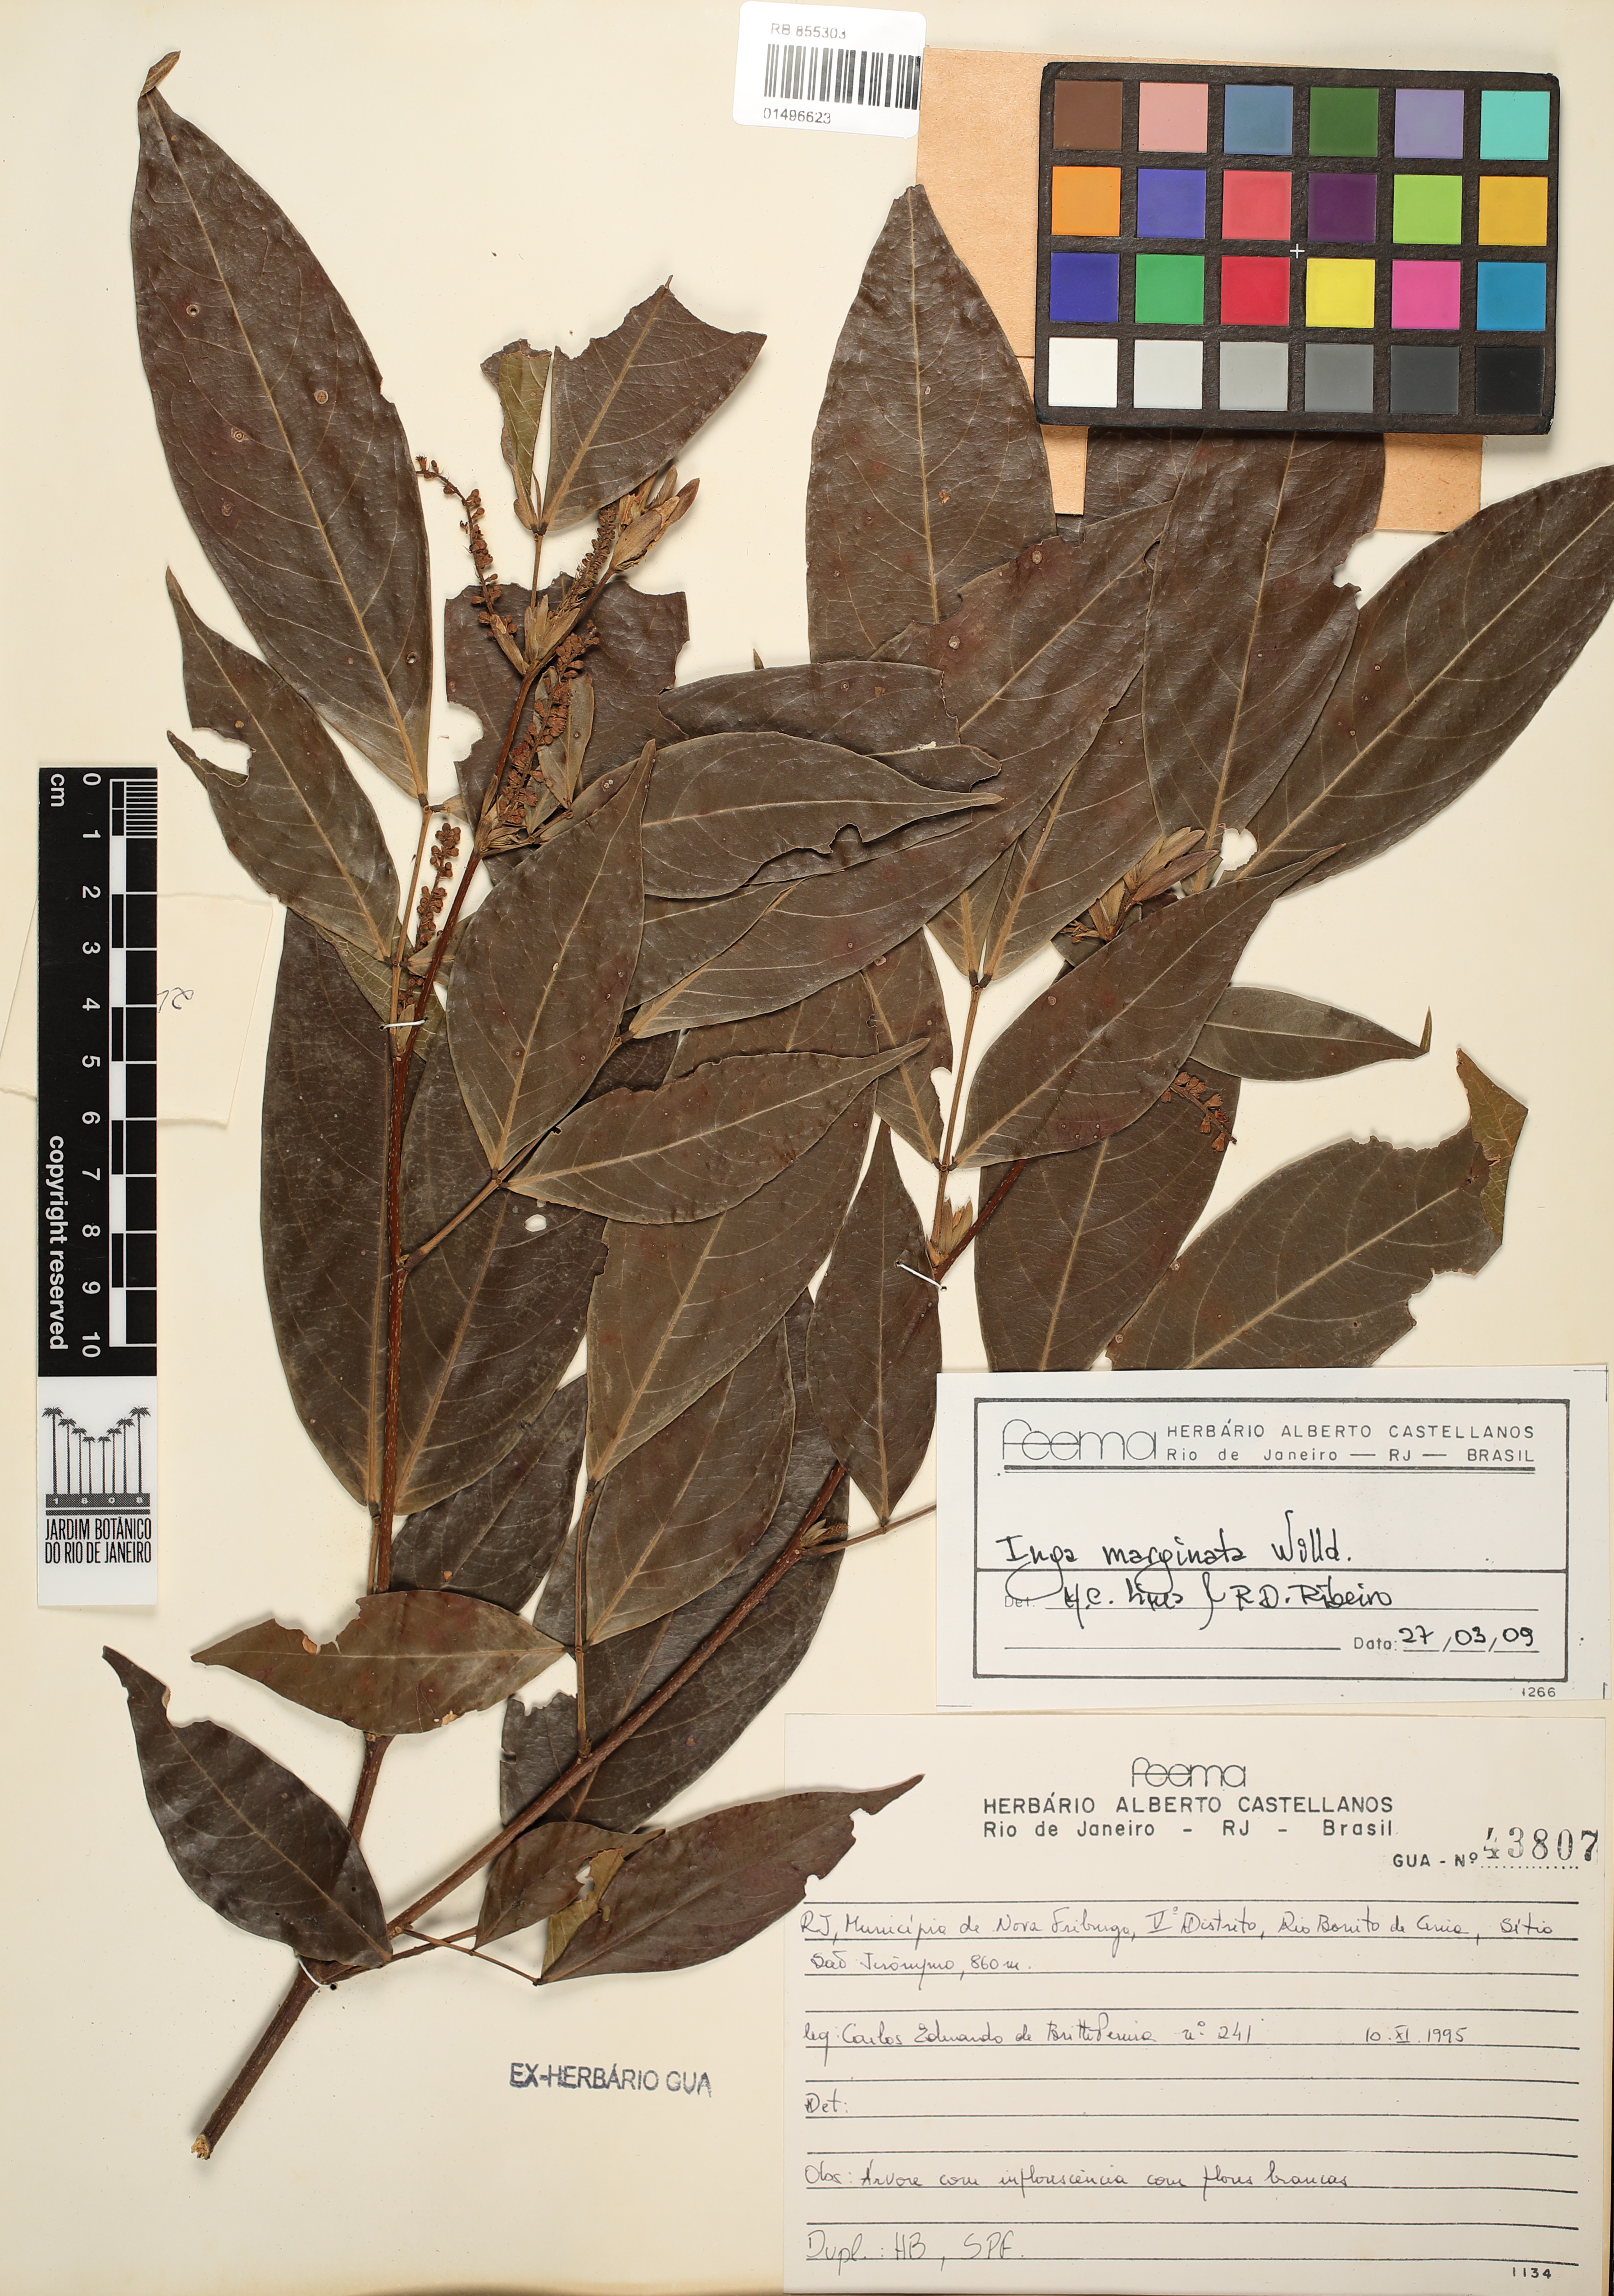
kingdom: Plantae
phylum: Tracheophyta
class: Magnoliopsida
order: Fabales
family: Fabaceae
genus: Inga
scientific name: Inga marginata
